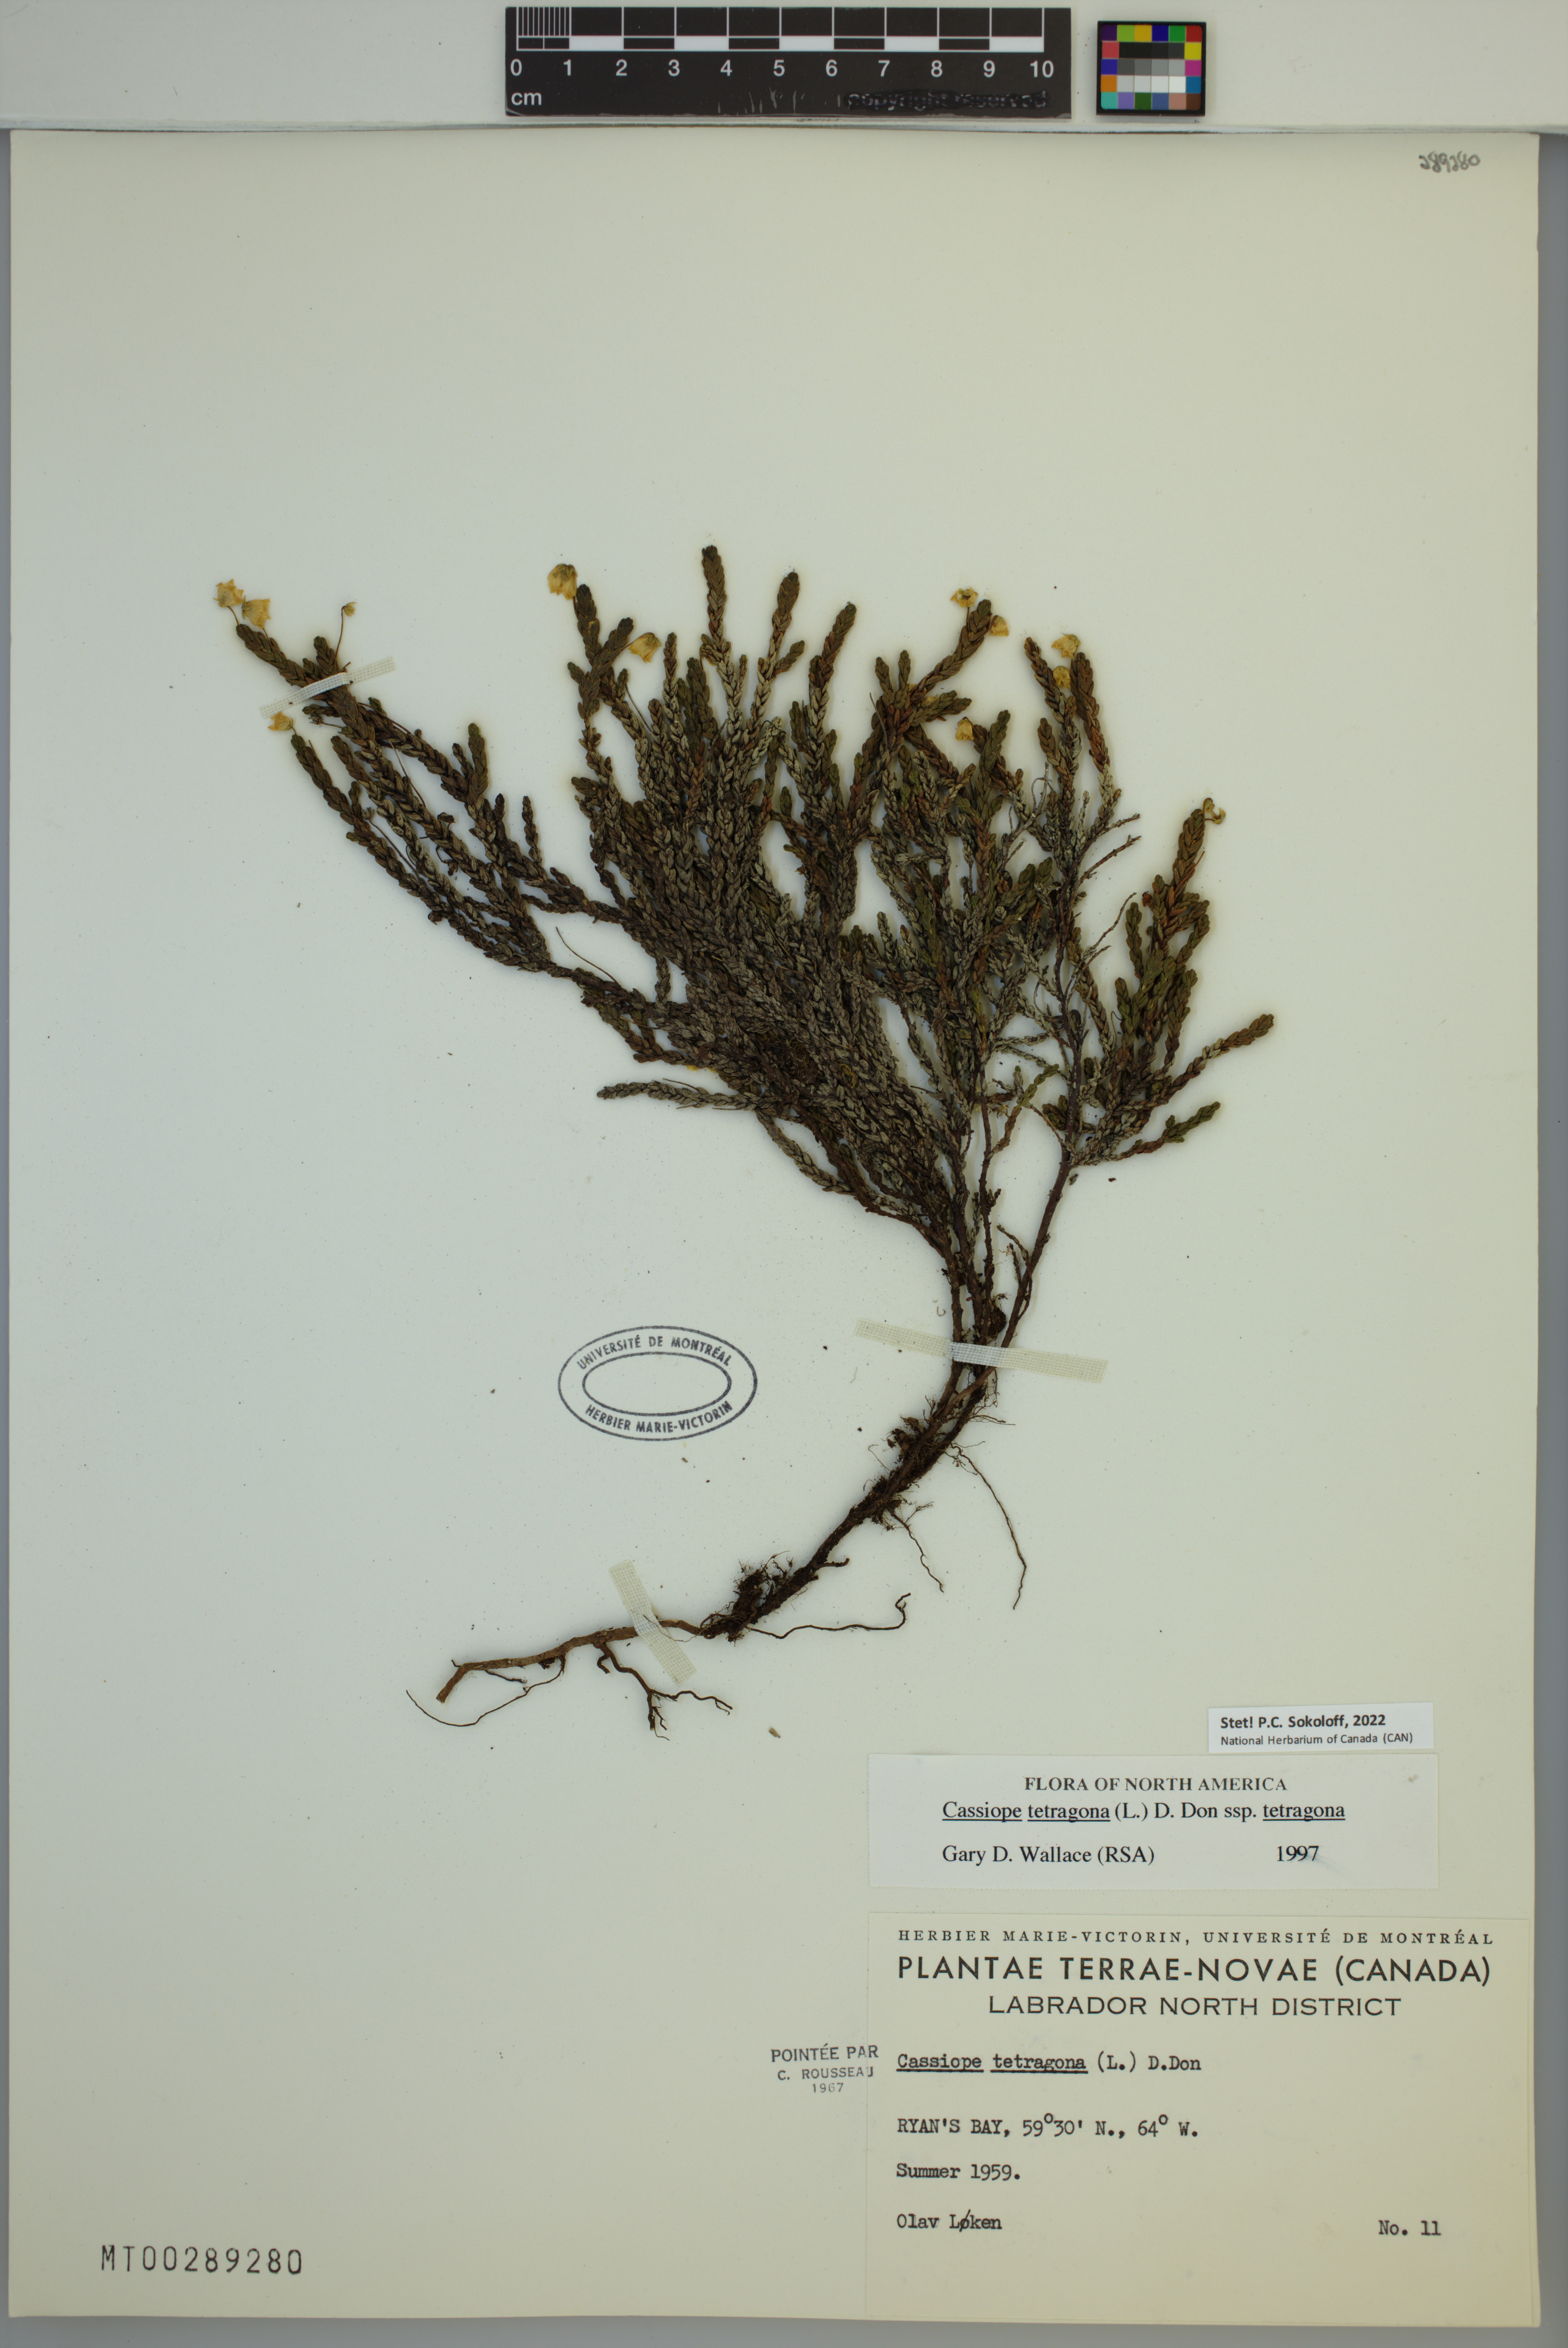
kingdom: Plantae
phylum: Tracheophyta
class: Magnoliopsida
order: Ericales
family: Ericaceae
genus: Cassiope
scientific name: Cassiope tetragona
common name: Arctic bell heather
